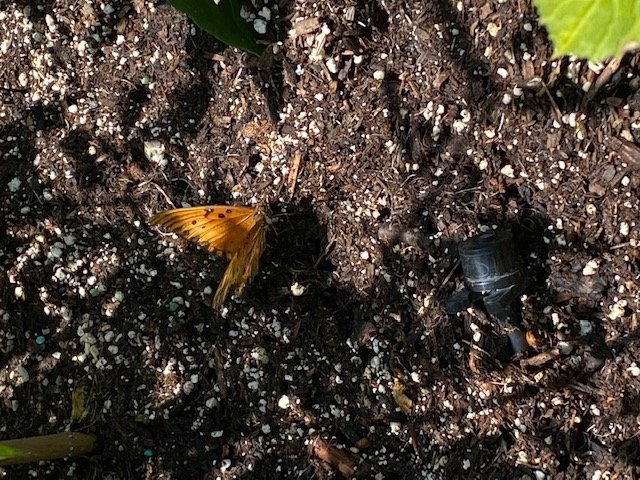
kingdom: Animalia
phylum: Arthropoda
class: Insecta
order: Lepidoptera
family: Nymphalidae
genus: Dione
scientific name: Dione vanillae
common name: Gulf Fritillary
